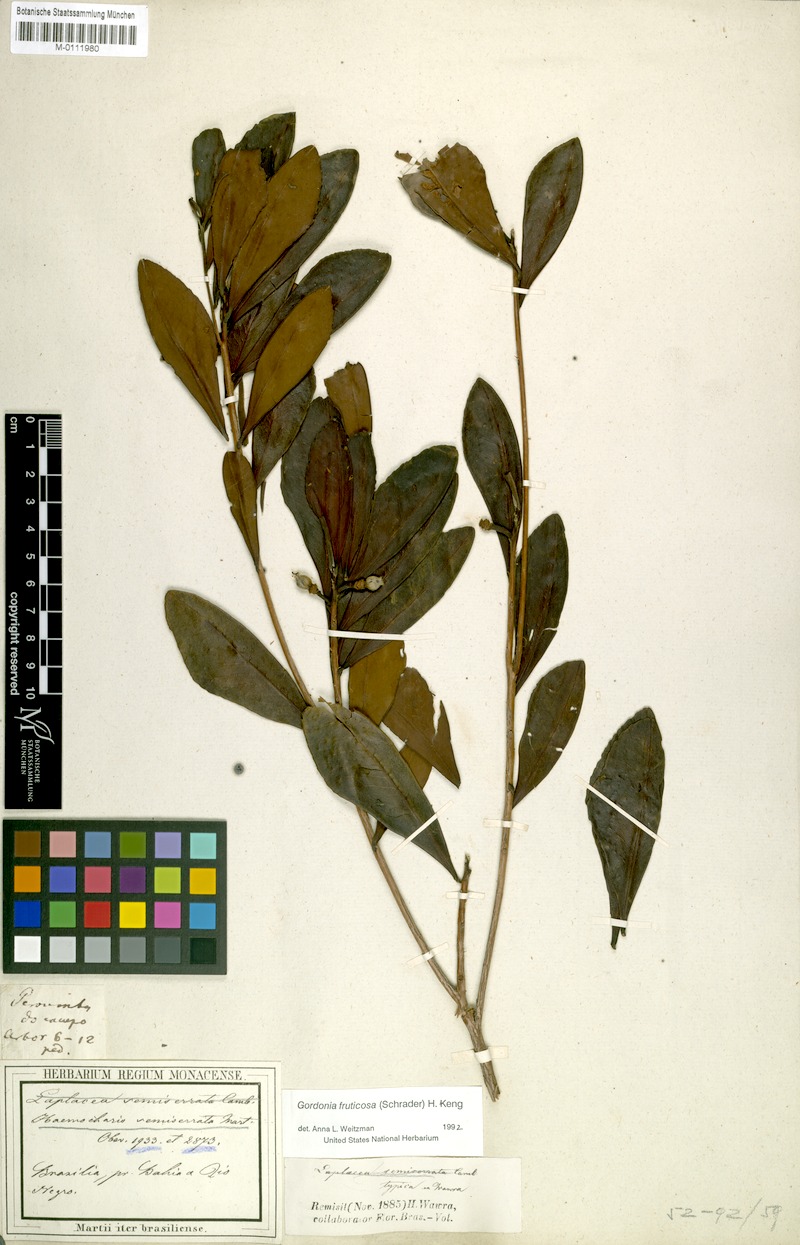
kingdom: Plantae
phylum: Tracheophyta
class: Magnoliopsida
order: Ericales
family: Theaceae
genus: Gordonia
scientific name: Gordonia fruticosa
